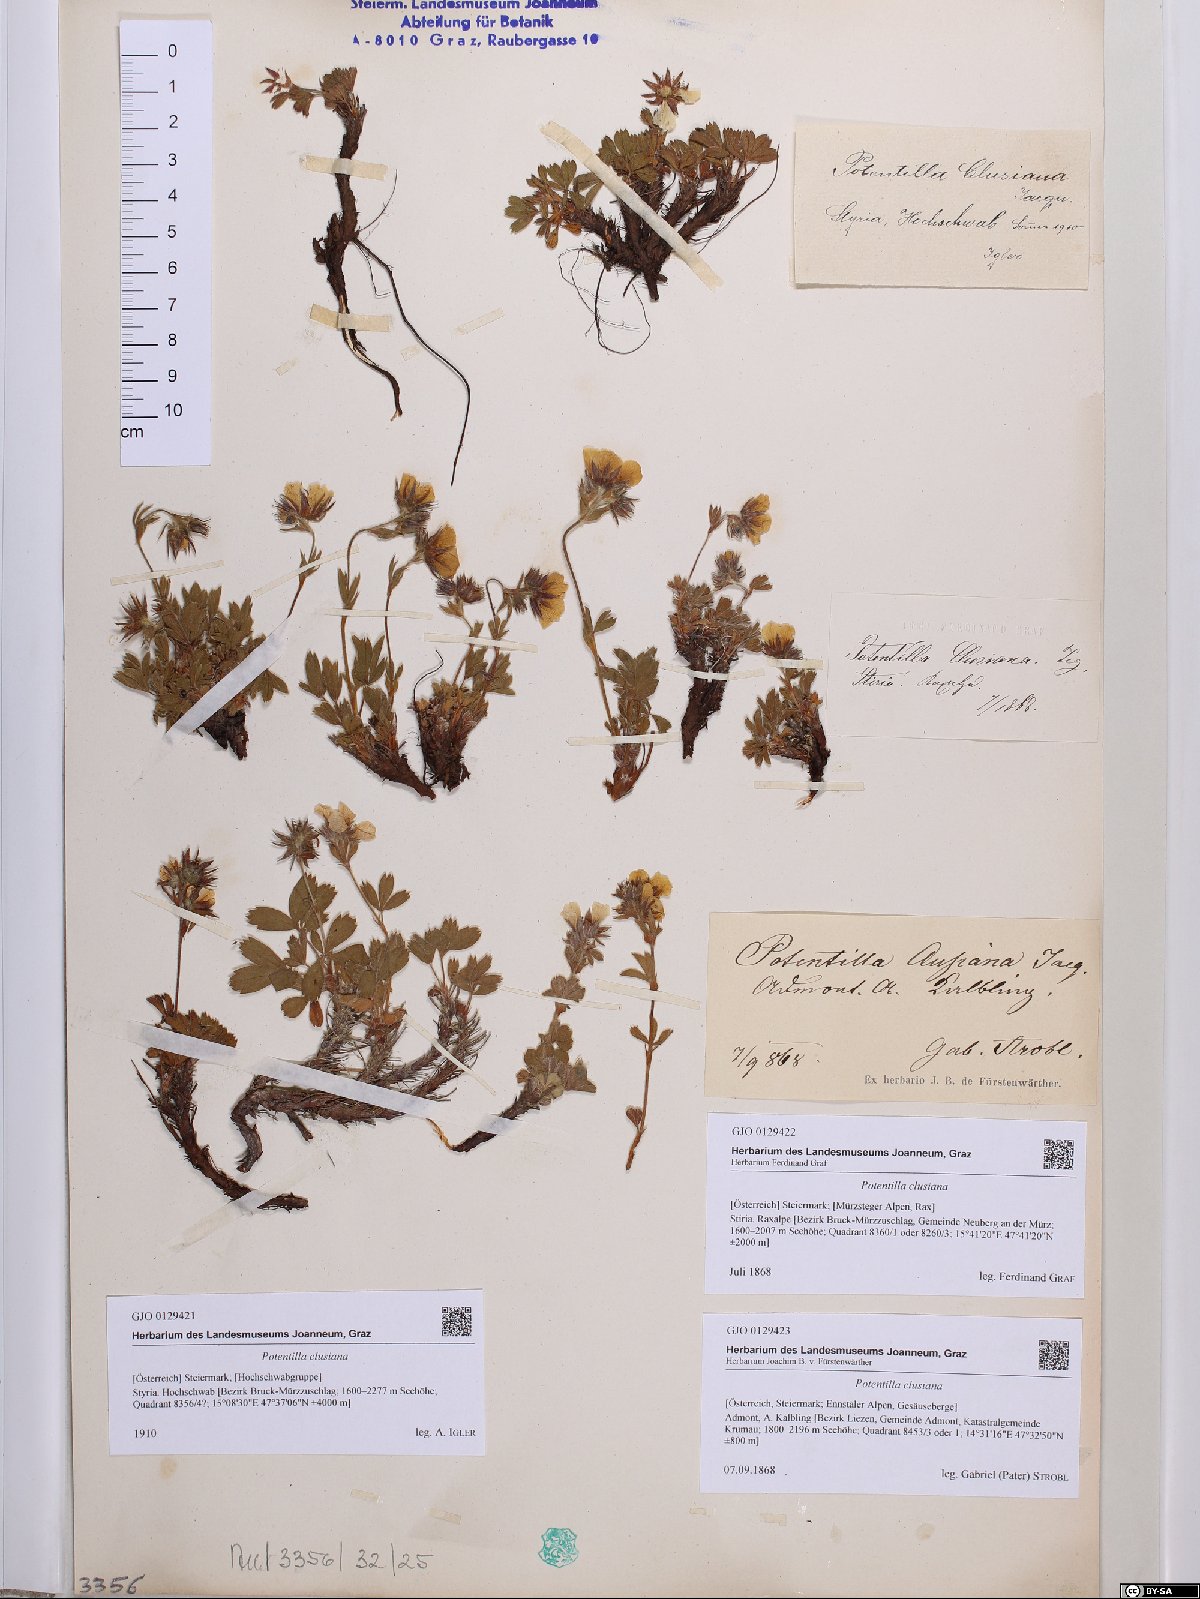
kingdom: Plantae
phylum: Tracheophyta
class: Magnoliopsida
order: Rosales
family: Rosaceae
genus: Potentilla
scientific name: Potentilla clusiana
